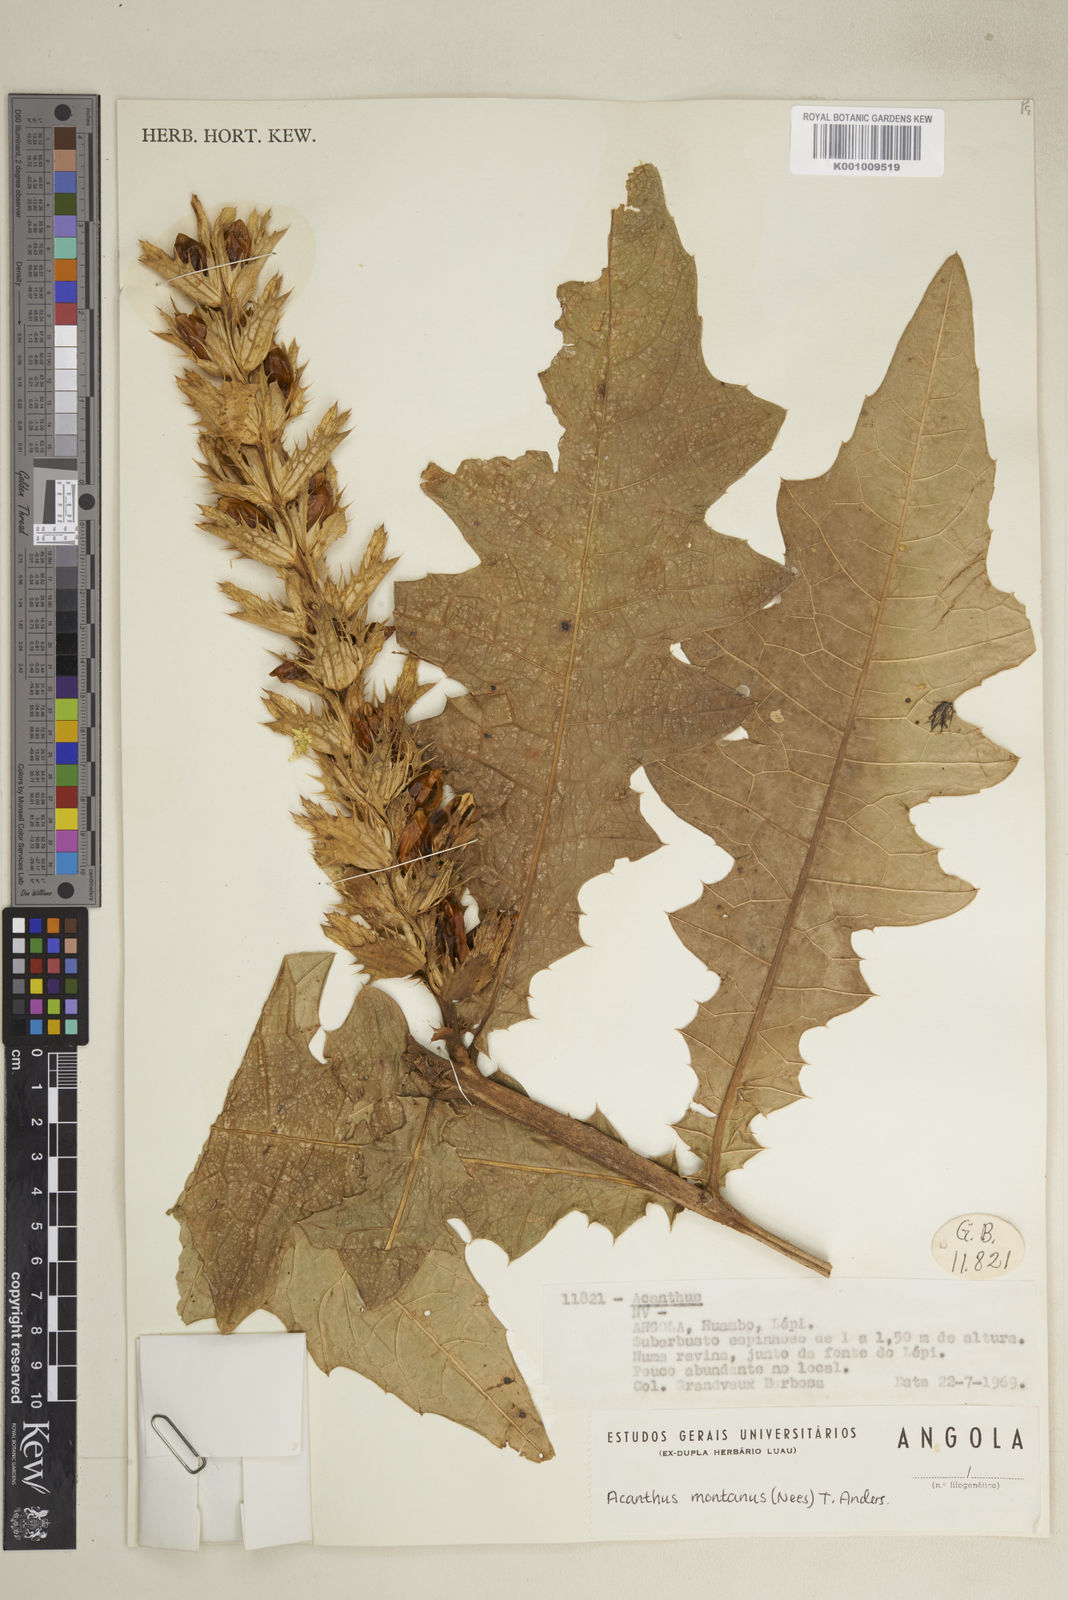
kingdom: Plantae
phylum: Tracheophyta
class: Magnoliopsida
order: Lamiales
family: Acanthaceae
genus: Acanthus
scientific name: Acanthus montanus
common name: Mountain thistle
